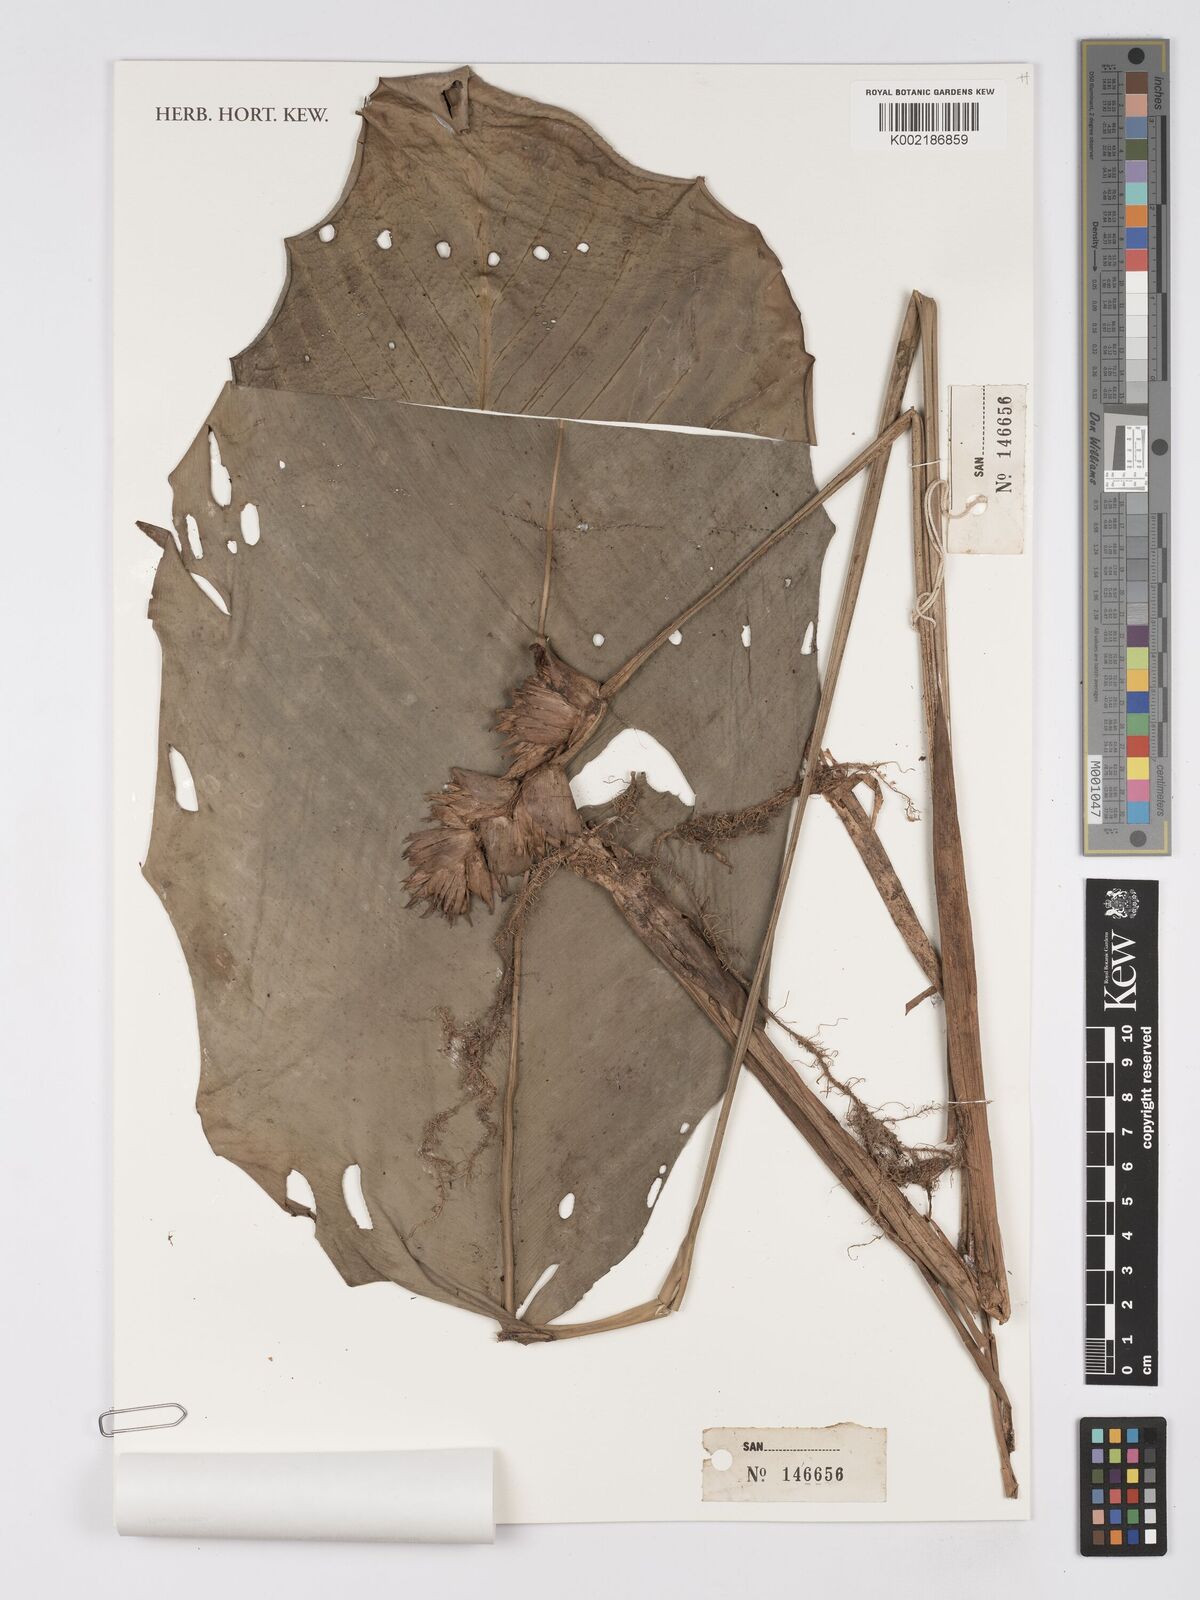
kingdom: Plantae
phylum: Tracheophyta
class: Liliopsida
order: Zingiberales
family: Marantaceae
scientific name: Marantaceae
